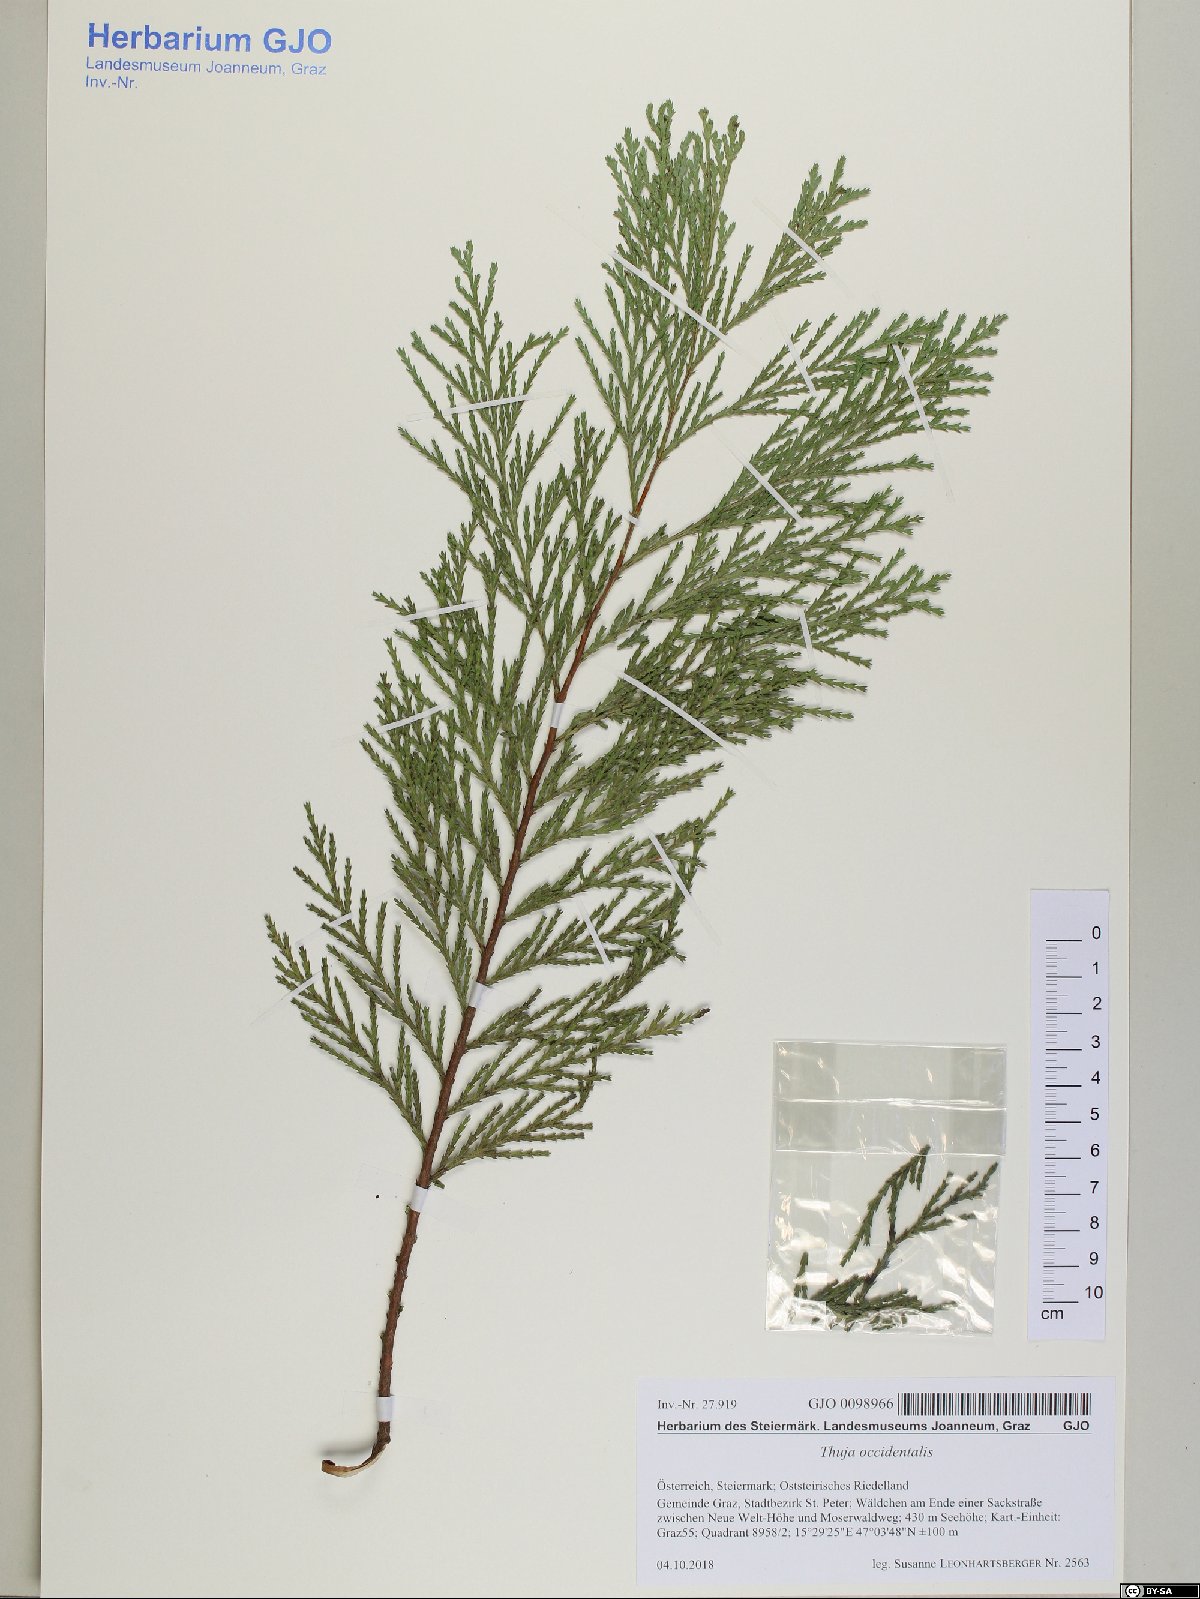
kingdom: Plantae
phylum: Tracheophyta
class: Pinopsida
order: Pinales
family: Cupressaceae
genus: Thuja
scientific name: Thuja occidentalis
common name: Northern white-cedar
